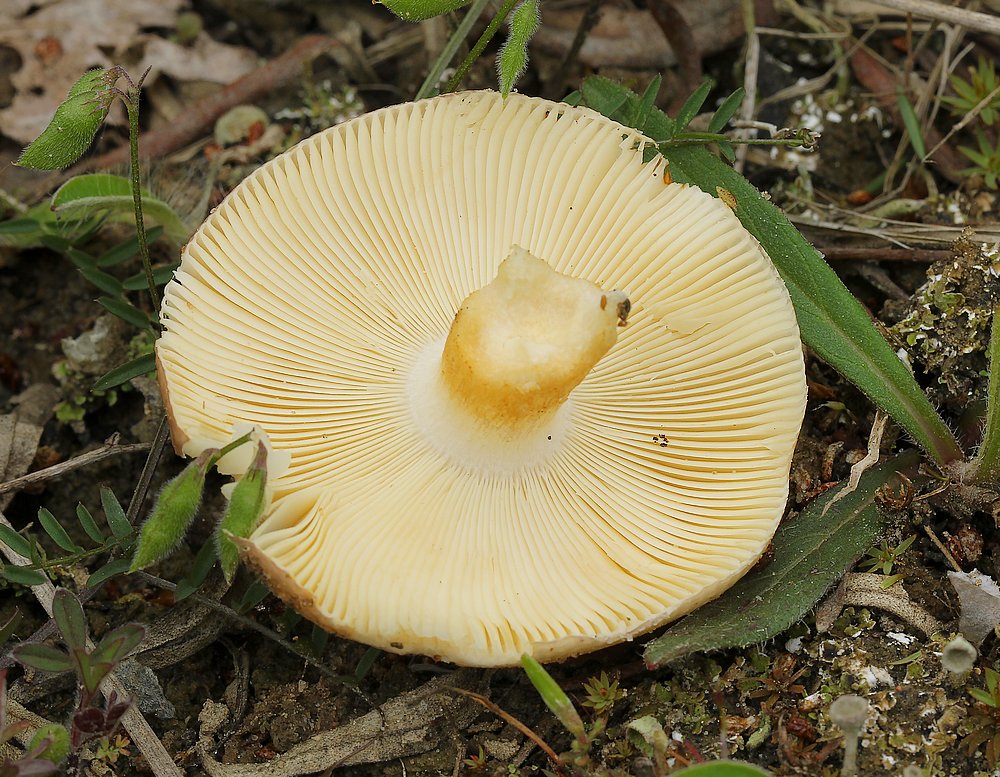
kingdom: Fungi
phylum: Basidiomycota
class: Agaricomycetes
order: Russulales
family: Russulaceae
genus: Russula
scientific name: Russula
